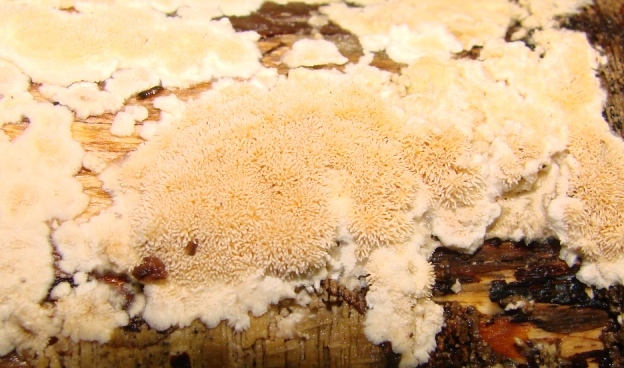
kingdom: Fungi
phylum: Basidiomycota
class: Agaricomycetes
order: Polyporales
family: Steccherinaceae
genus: Steccherinum
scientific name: Steccherinum ochraceum
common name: almindelig skønpig
